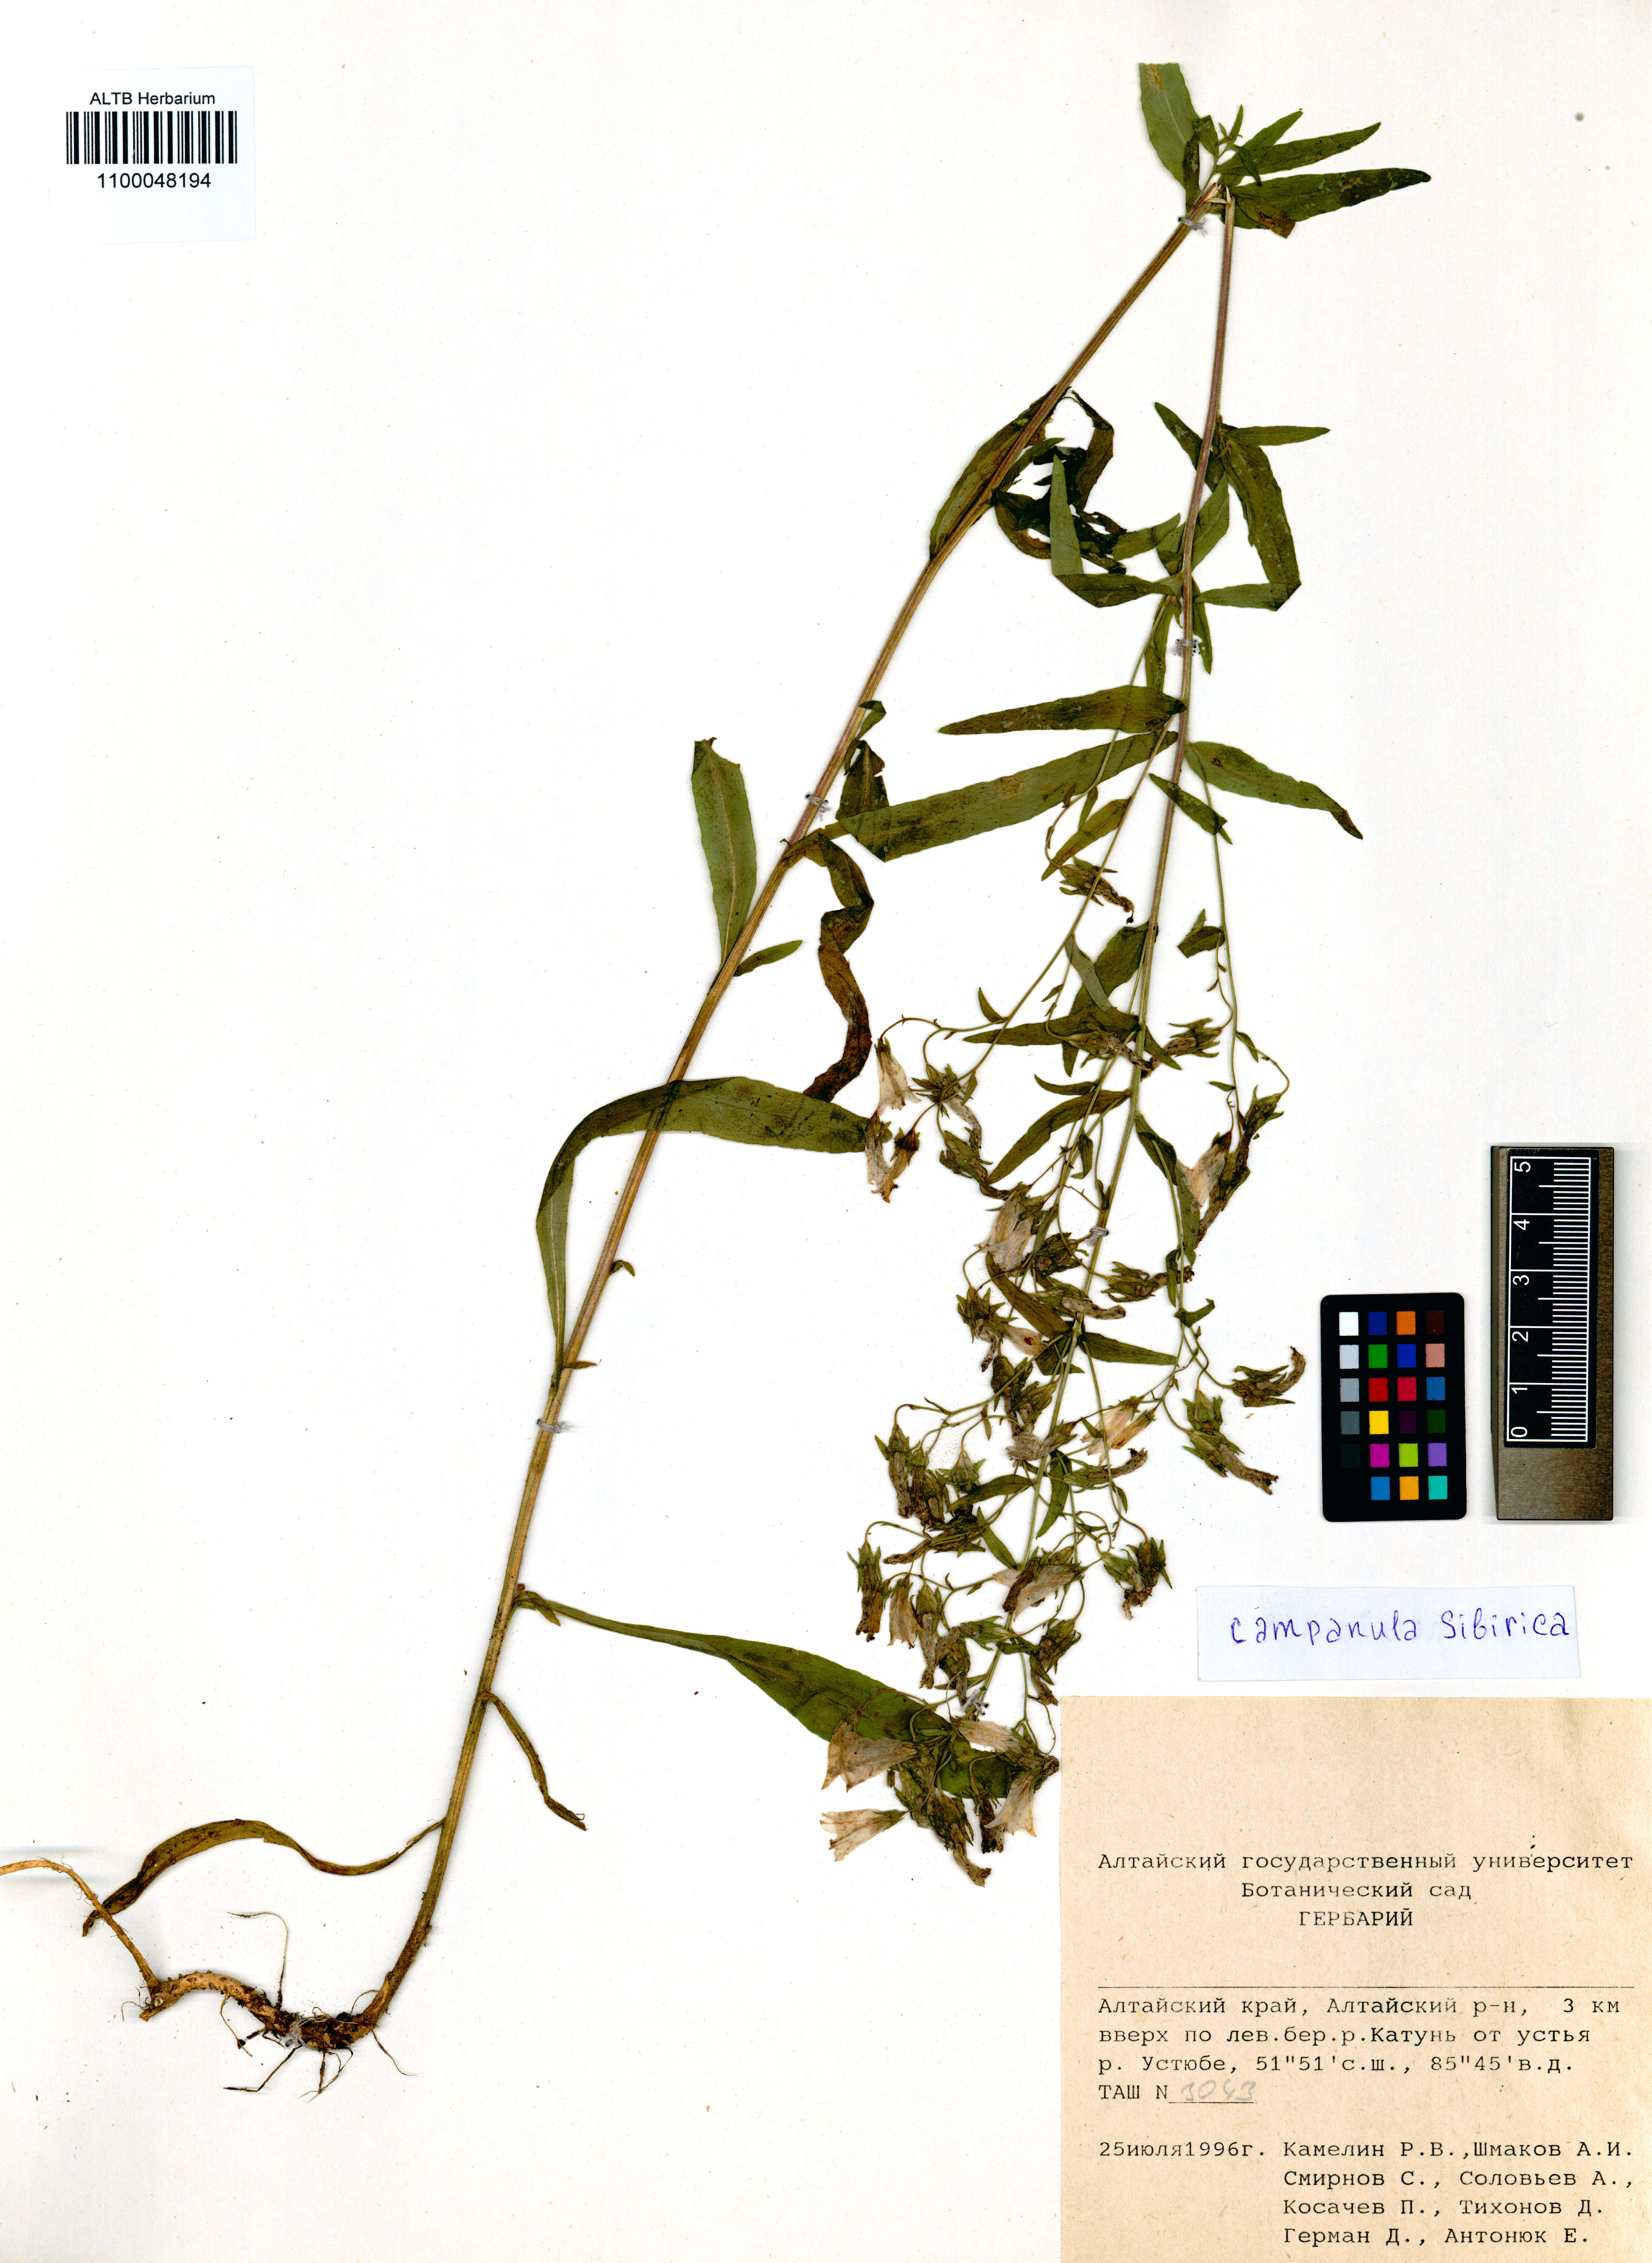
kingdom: Plantae
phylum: Tracheophyta
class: Magnoliopsida
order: Asterales
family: Campanulaceae
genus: Campanula
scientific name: Campanula sibirica
